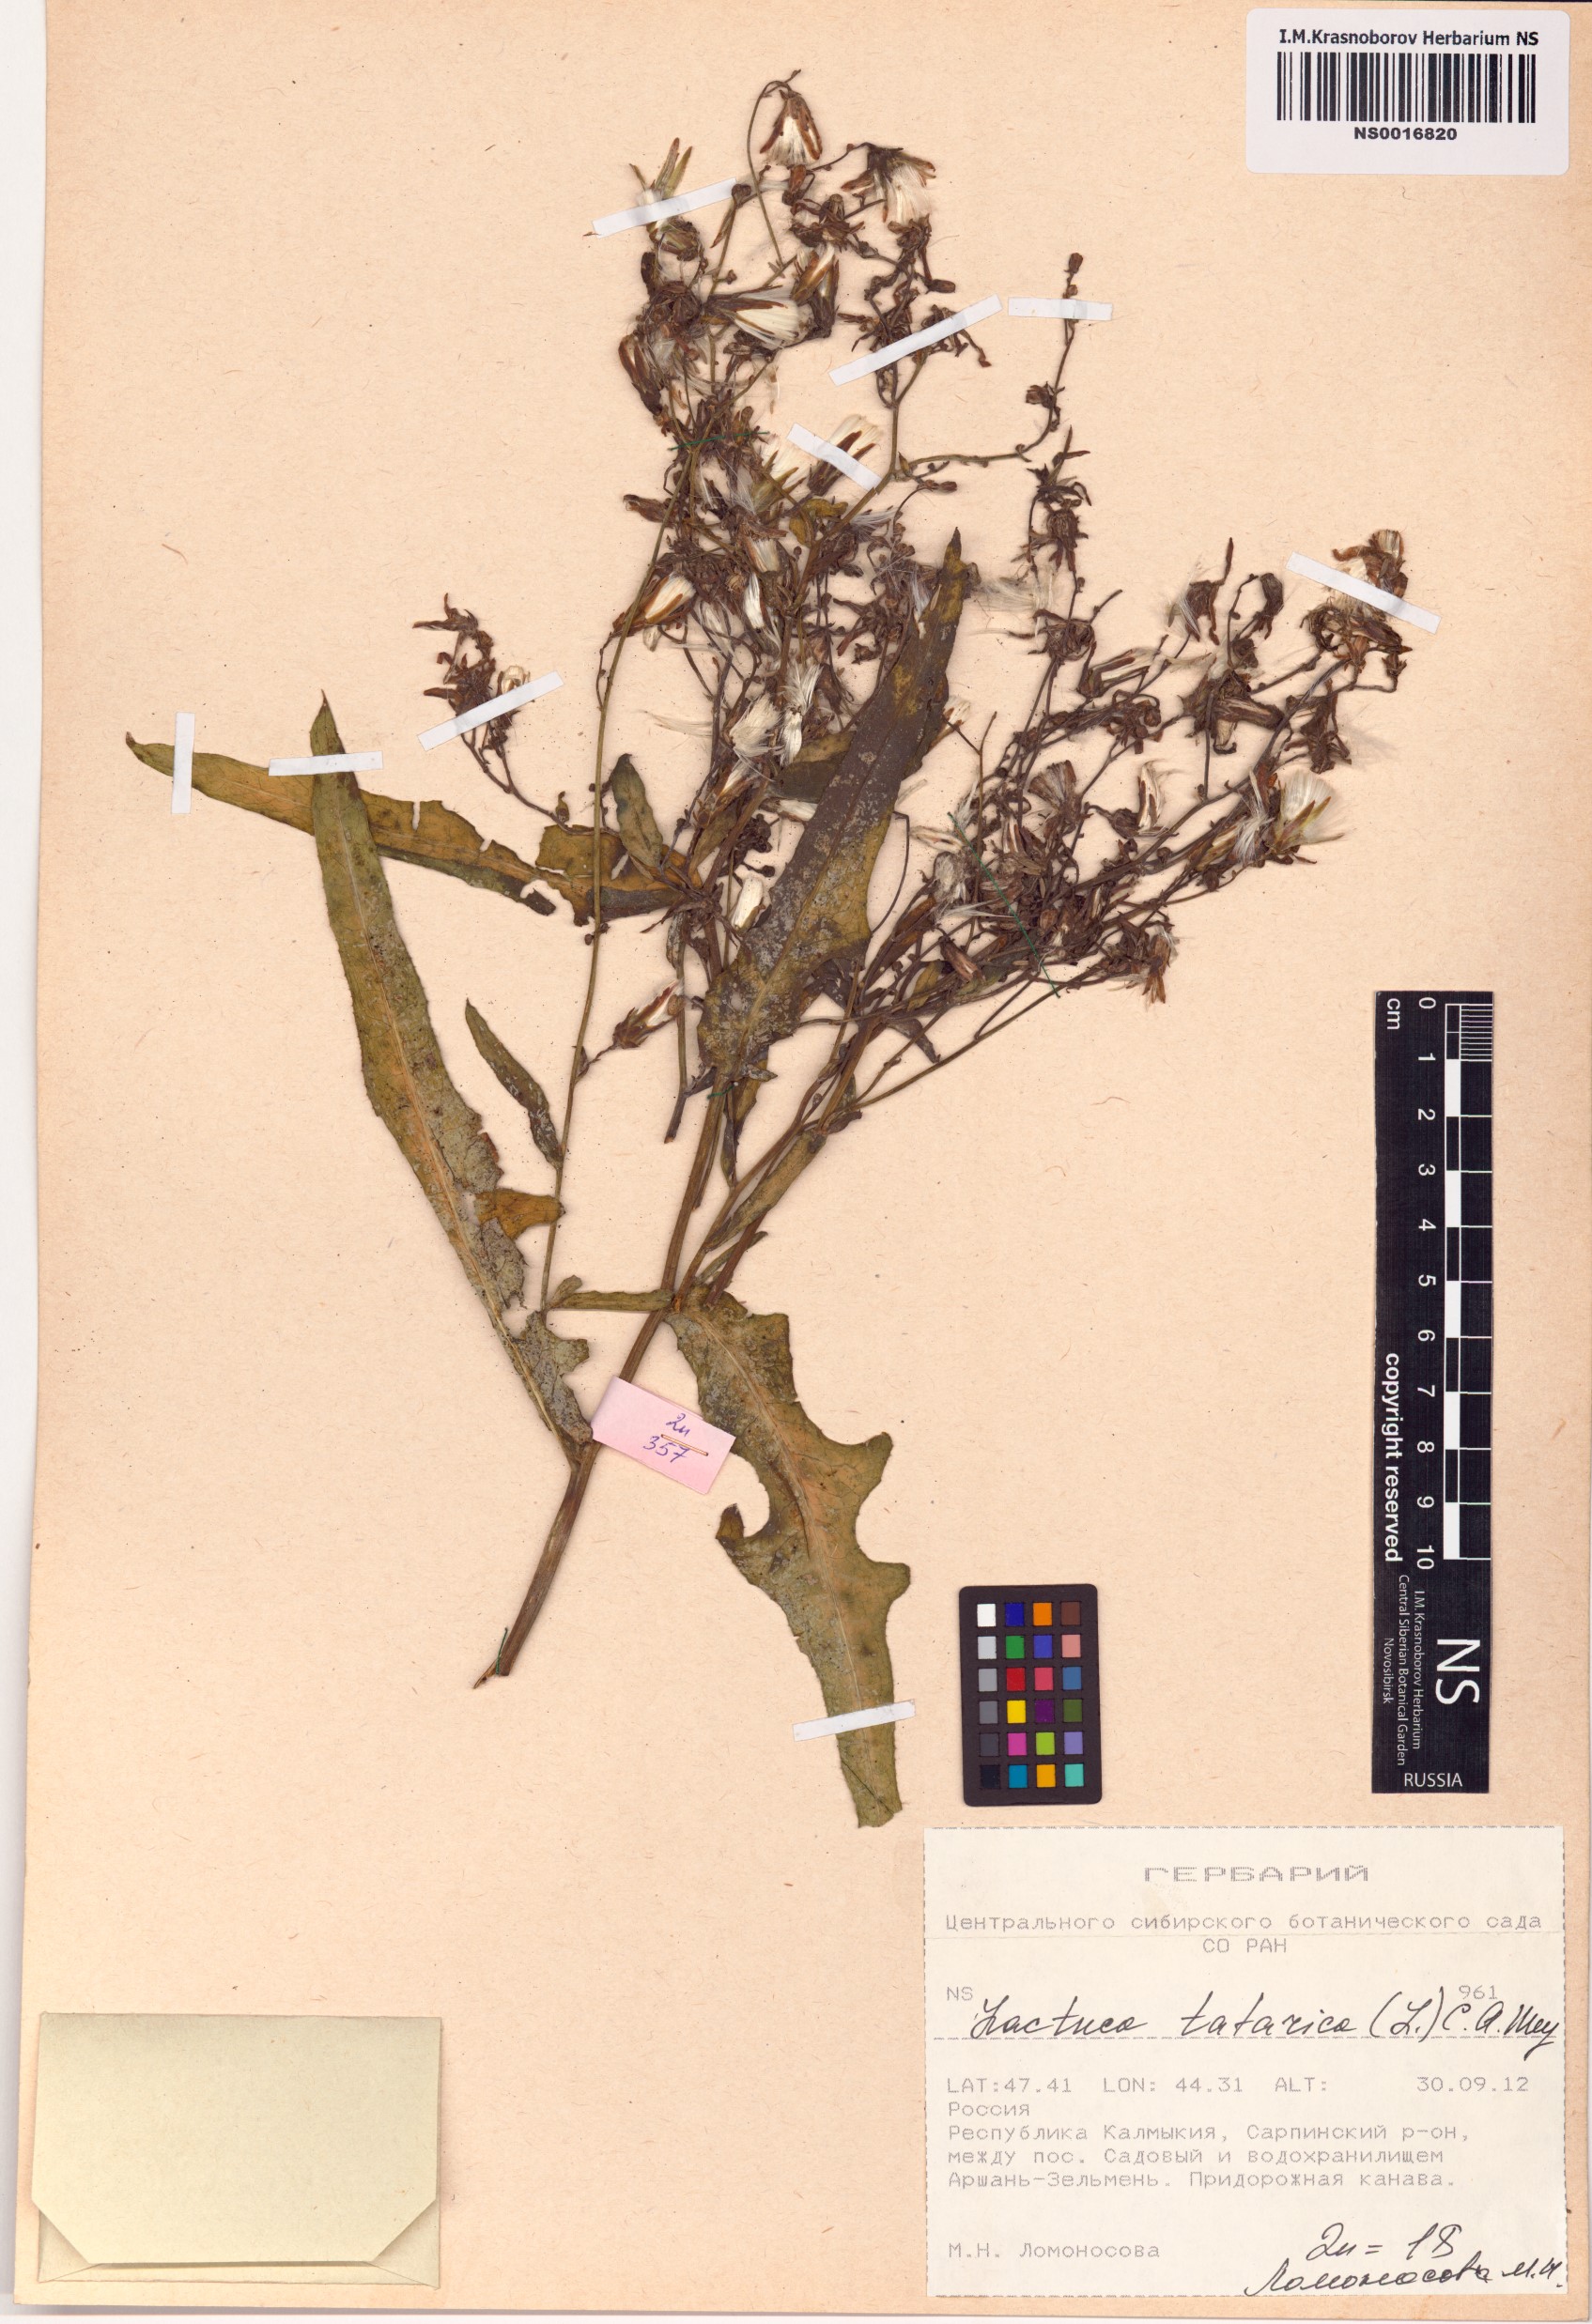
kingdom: Plantae
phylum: Tracheophyta
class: Magnoliopsida
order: Asterales
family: Asteraceae
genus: Lactuca
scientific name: Lactuca tatarica
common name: Blue lettuce
